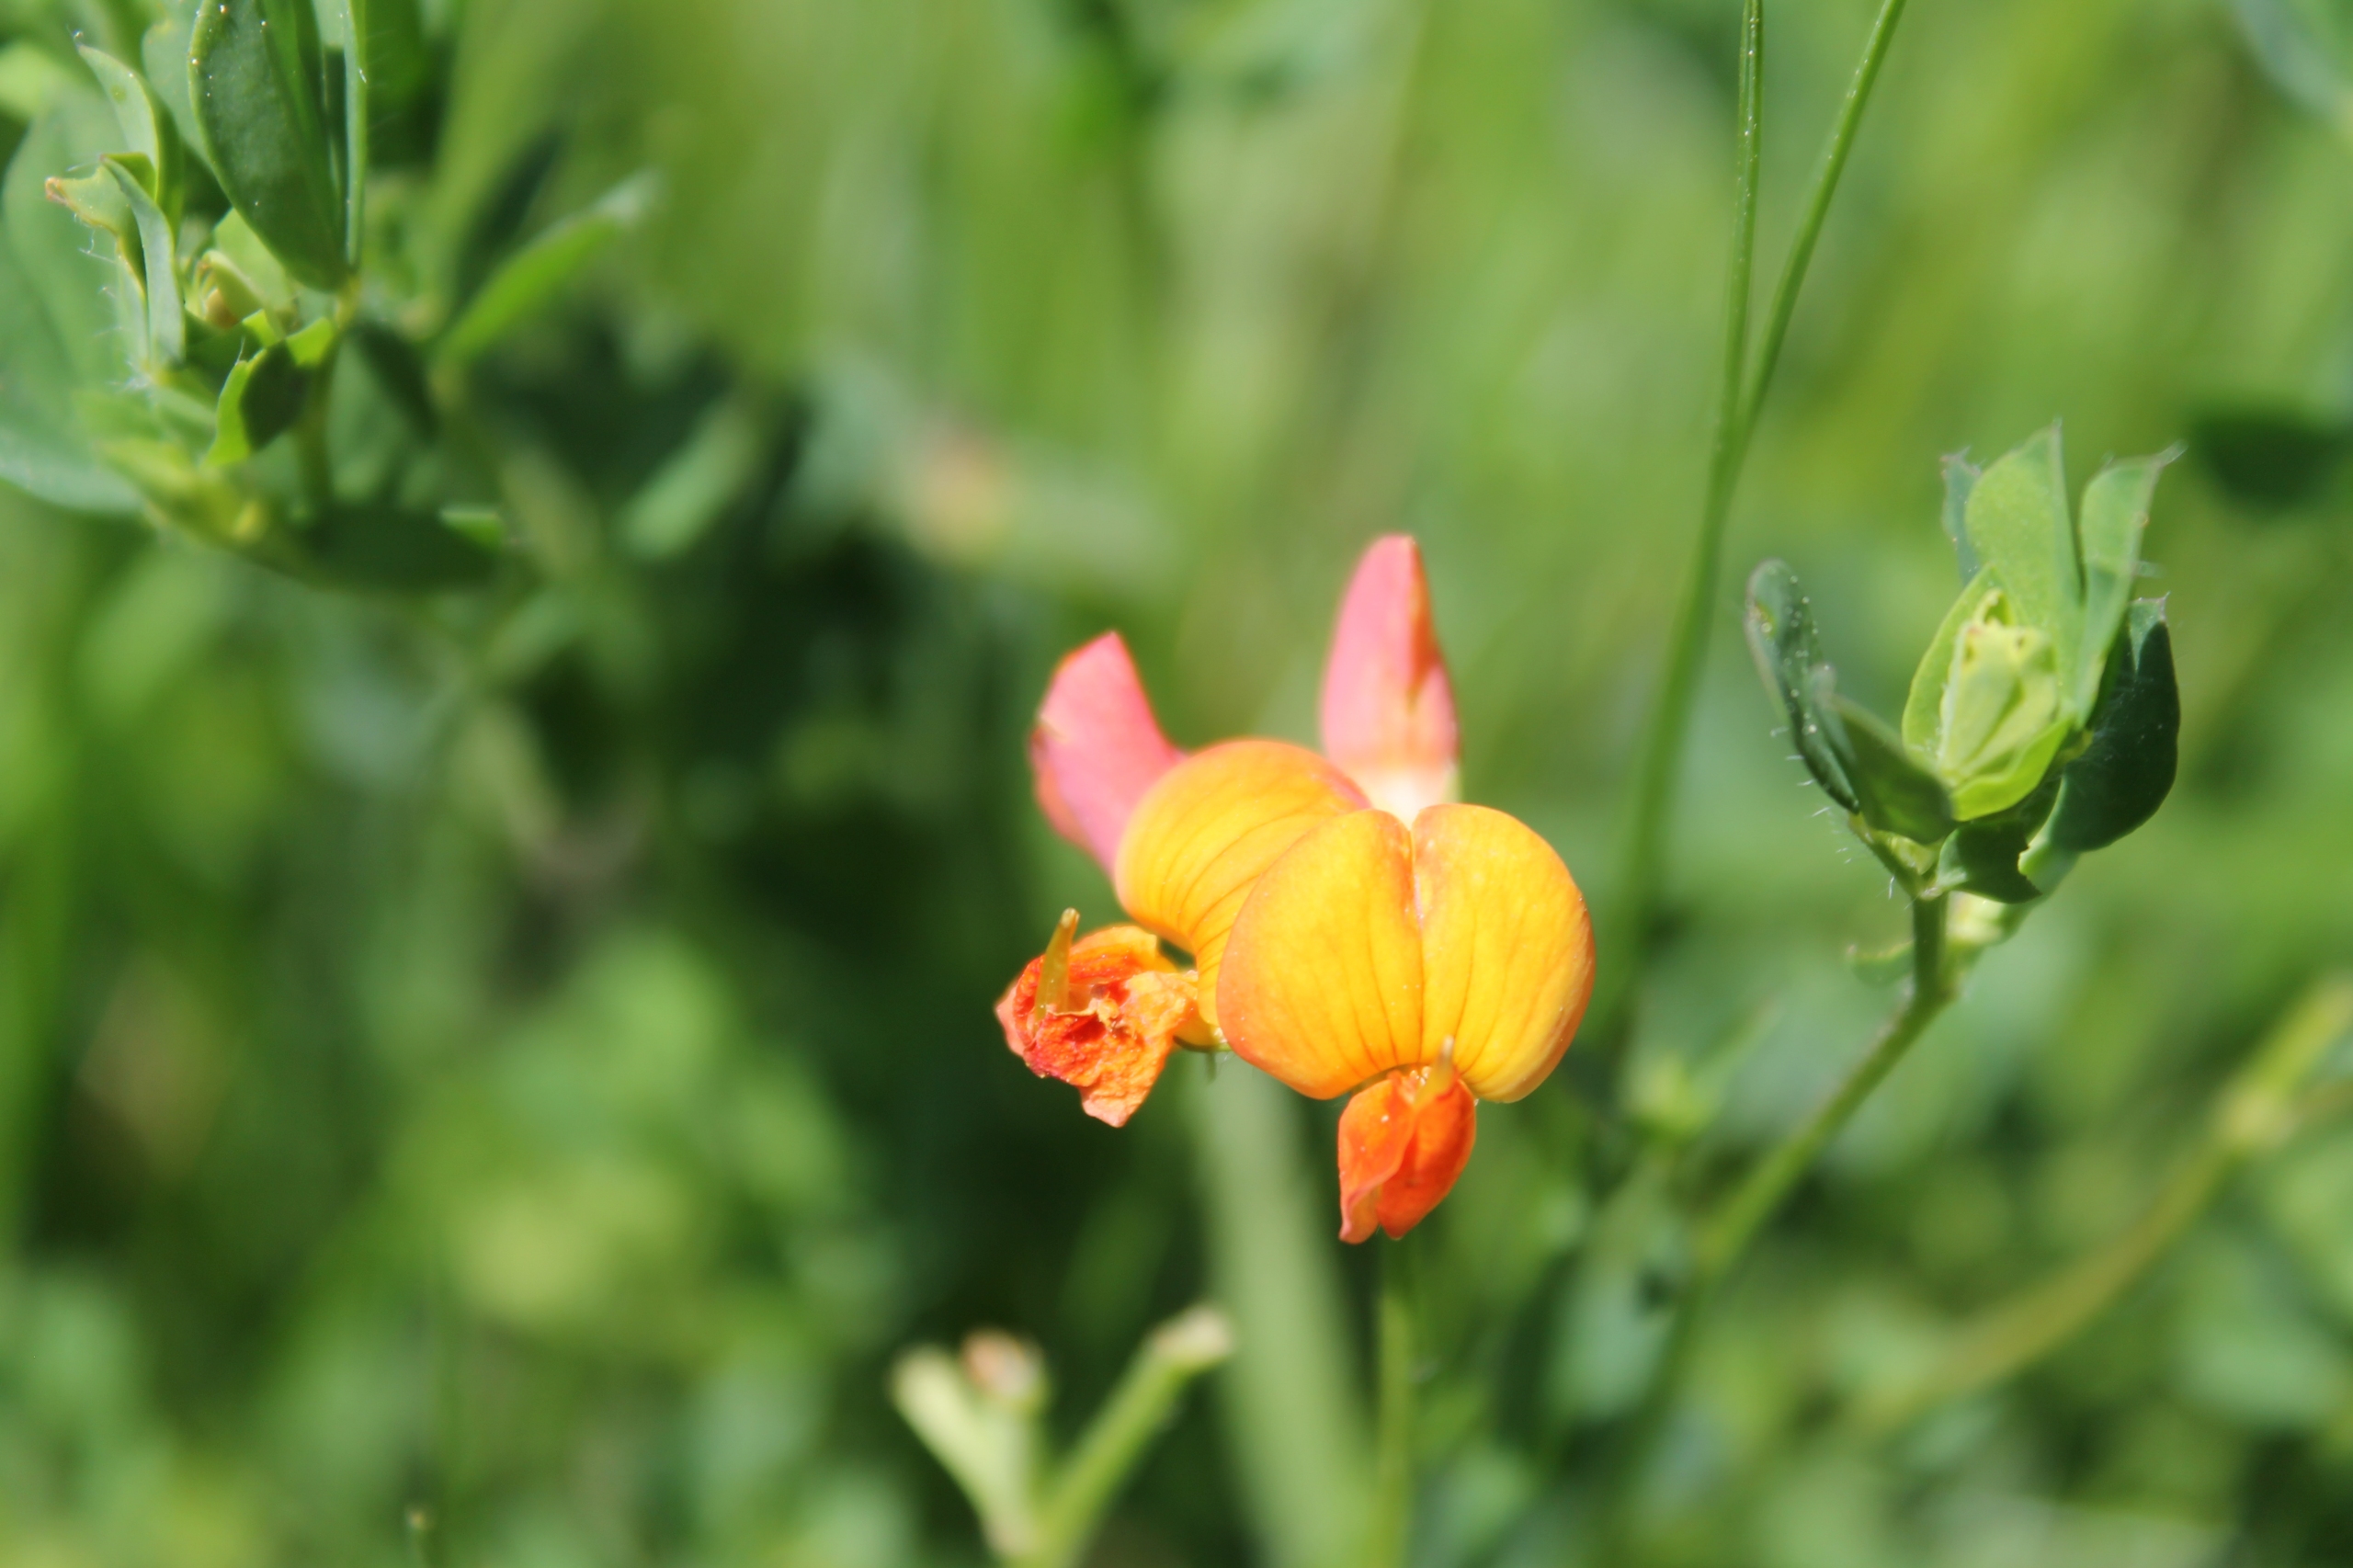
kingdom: Plantae
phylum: Tracheophyta
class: Magnoliopsida
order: Fabales
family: Fabaceae
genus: Lotus
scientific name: Lotus corniculatus
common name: Almindelig kællingetand
